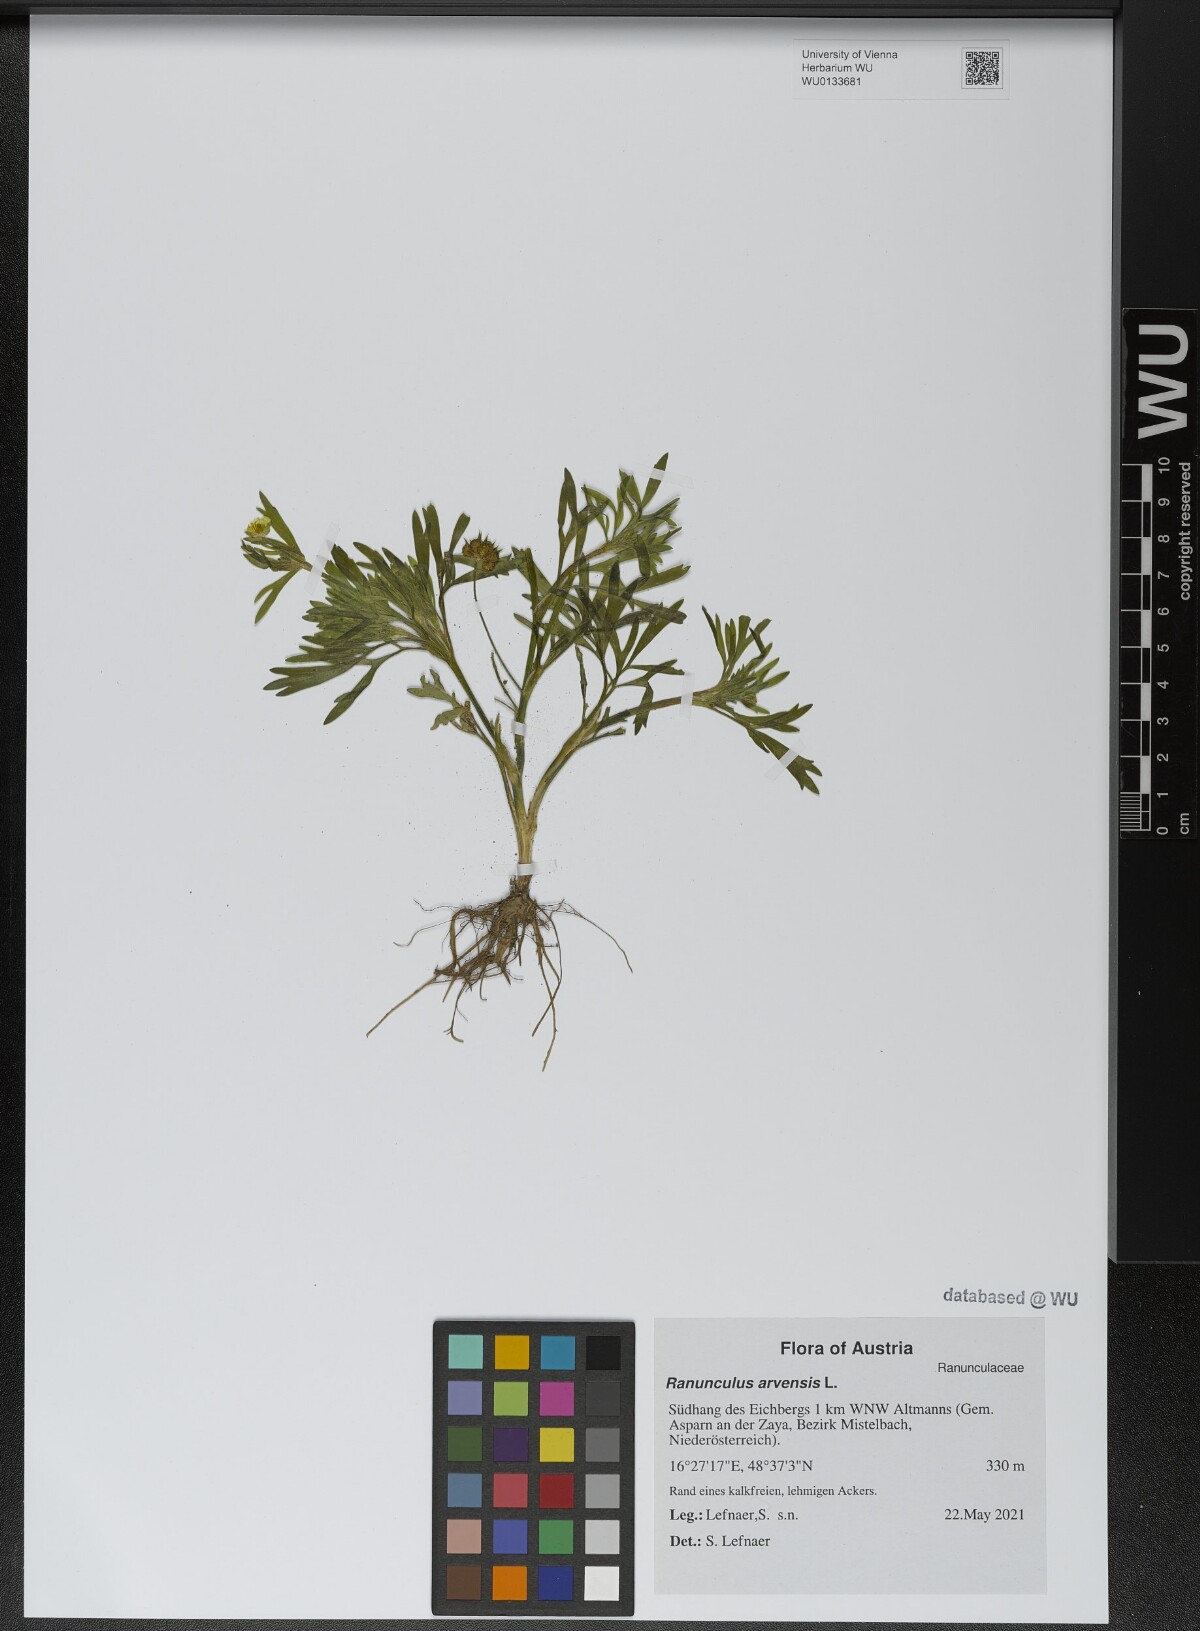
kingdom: Plantae
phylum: Tracheophyta
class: Magnoliopsida
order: Ranunculales
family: Ranunculaceae
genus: Ranunculus
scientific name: Ranunculus arvensis
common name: Corn buttercup
